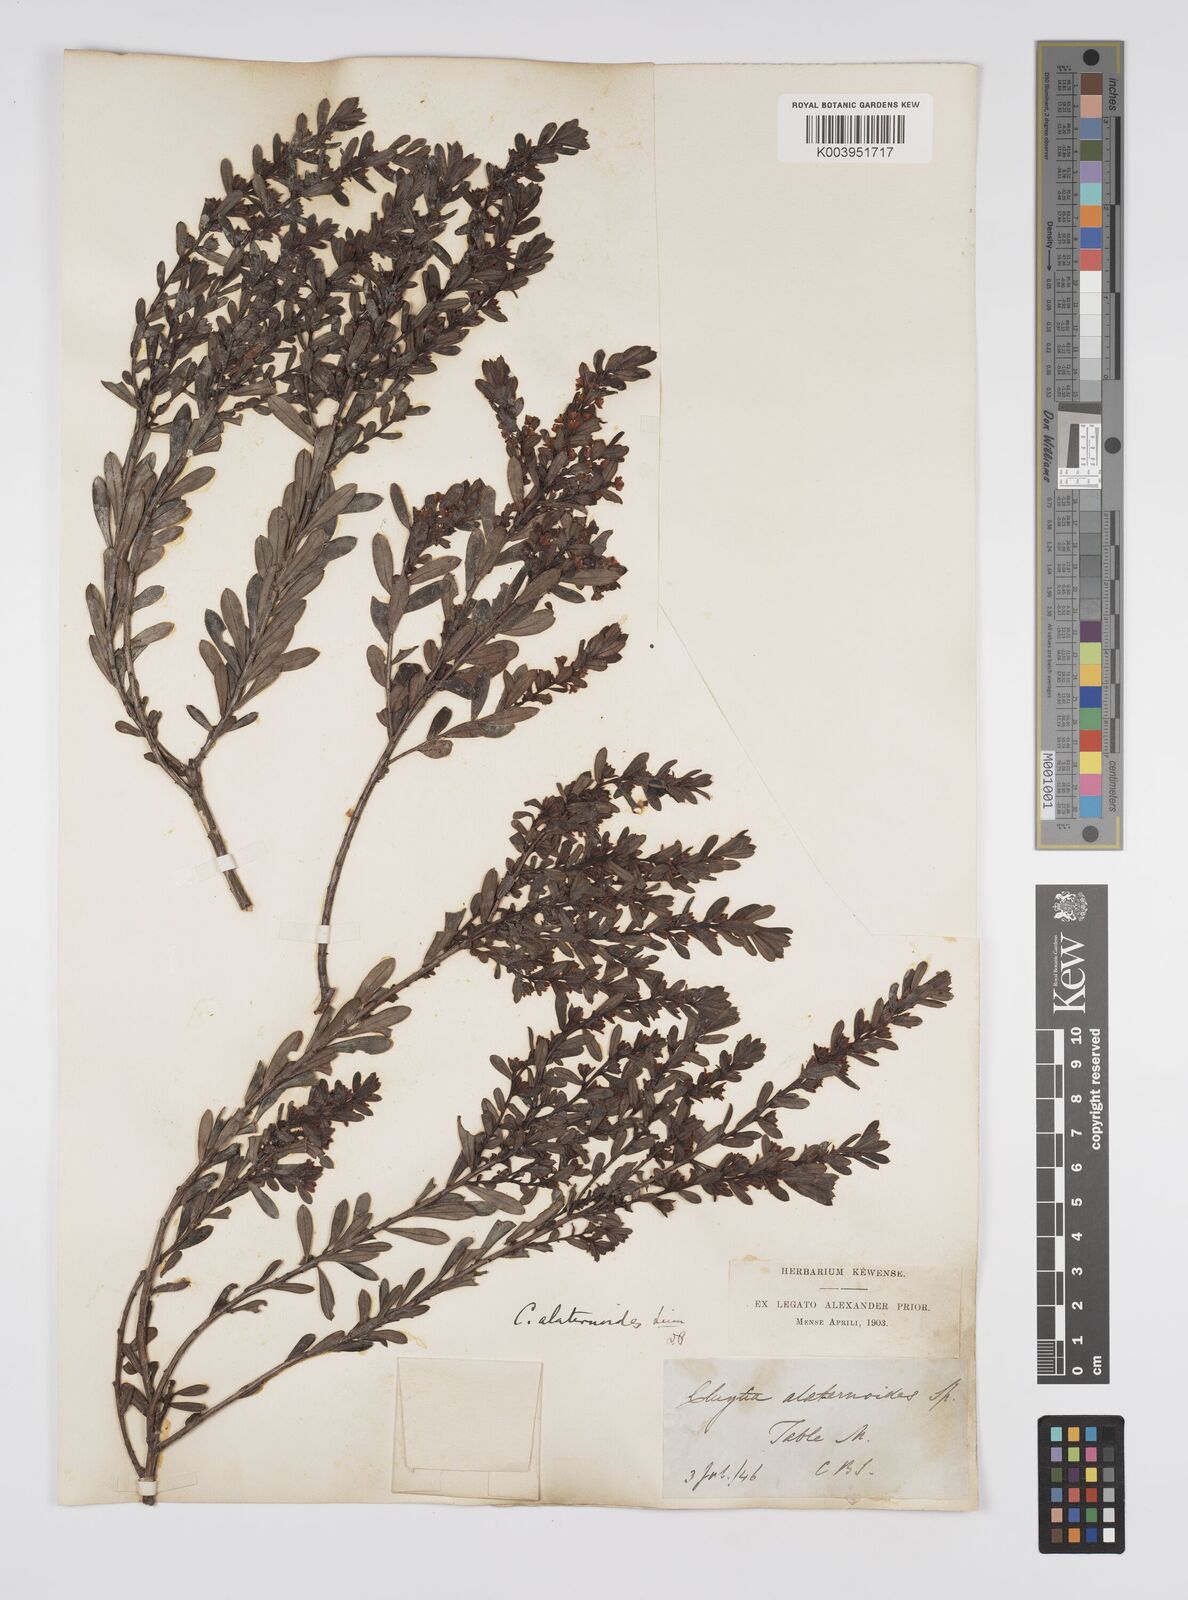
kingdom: Plantae
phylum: Tracheophyta
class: Magnoliopsida
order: Malpighiales
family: Peraceae
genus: Clutia
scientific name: Clutia alaternoides
